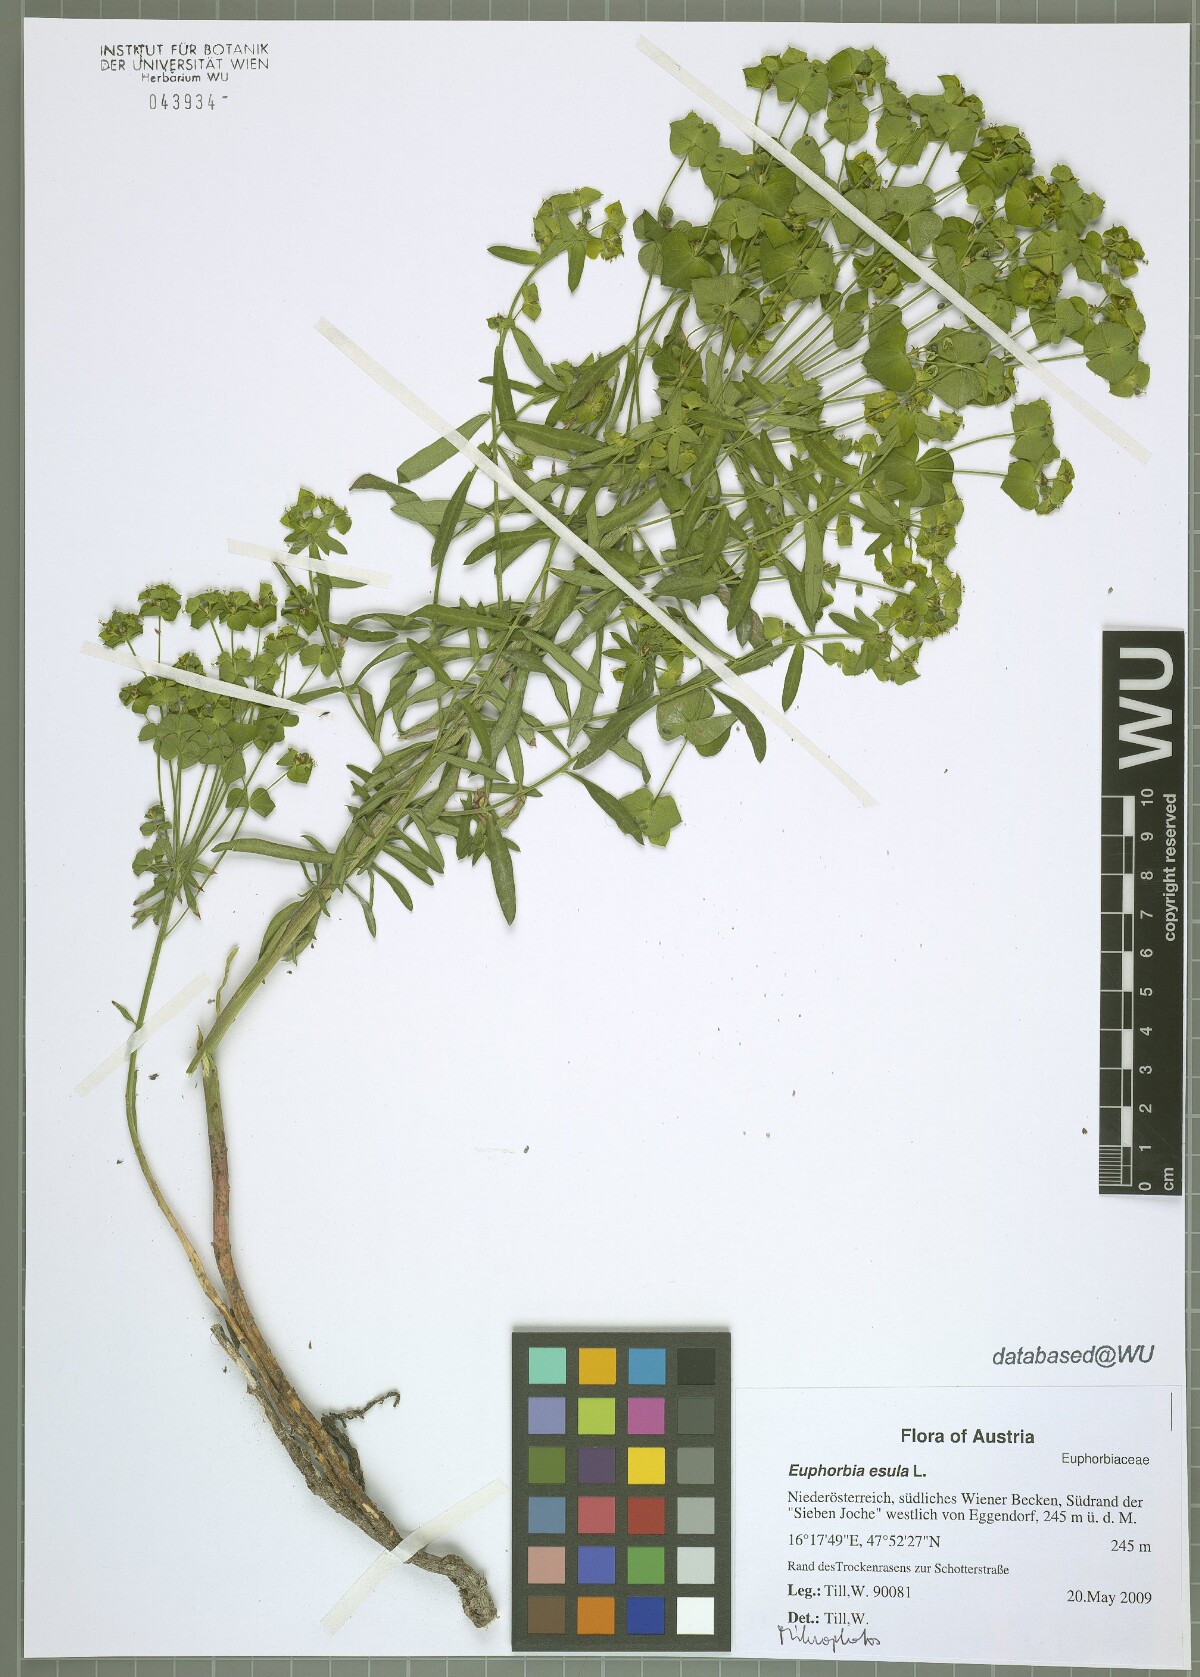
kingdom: Plantae
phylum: Tracheophyta
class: Magnoliopsida
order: Malpighiales
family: Euphorbiaceae
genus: Euphorbia
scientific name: Euphorbia esula
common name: Leafy spurge
